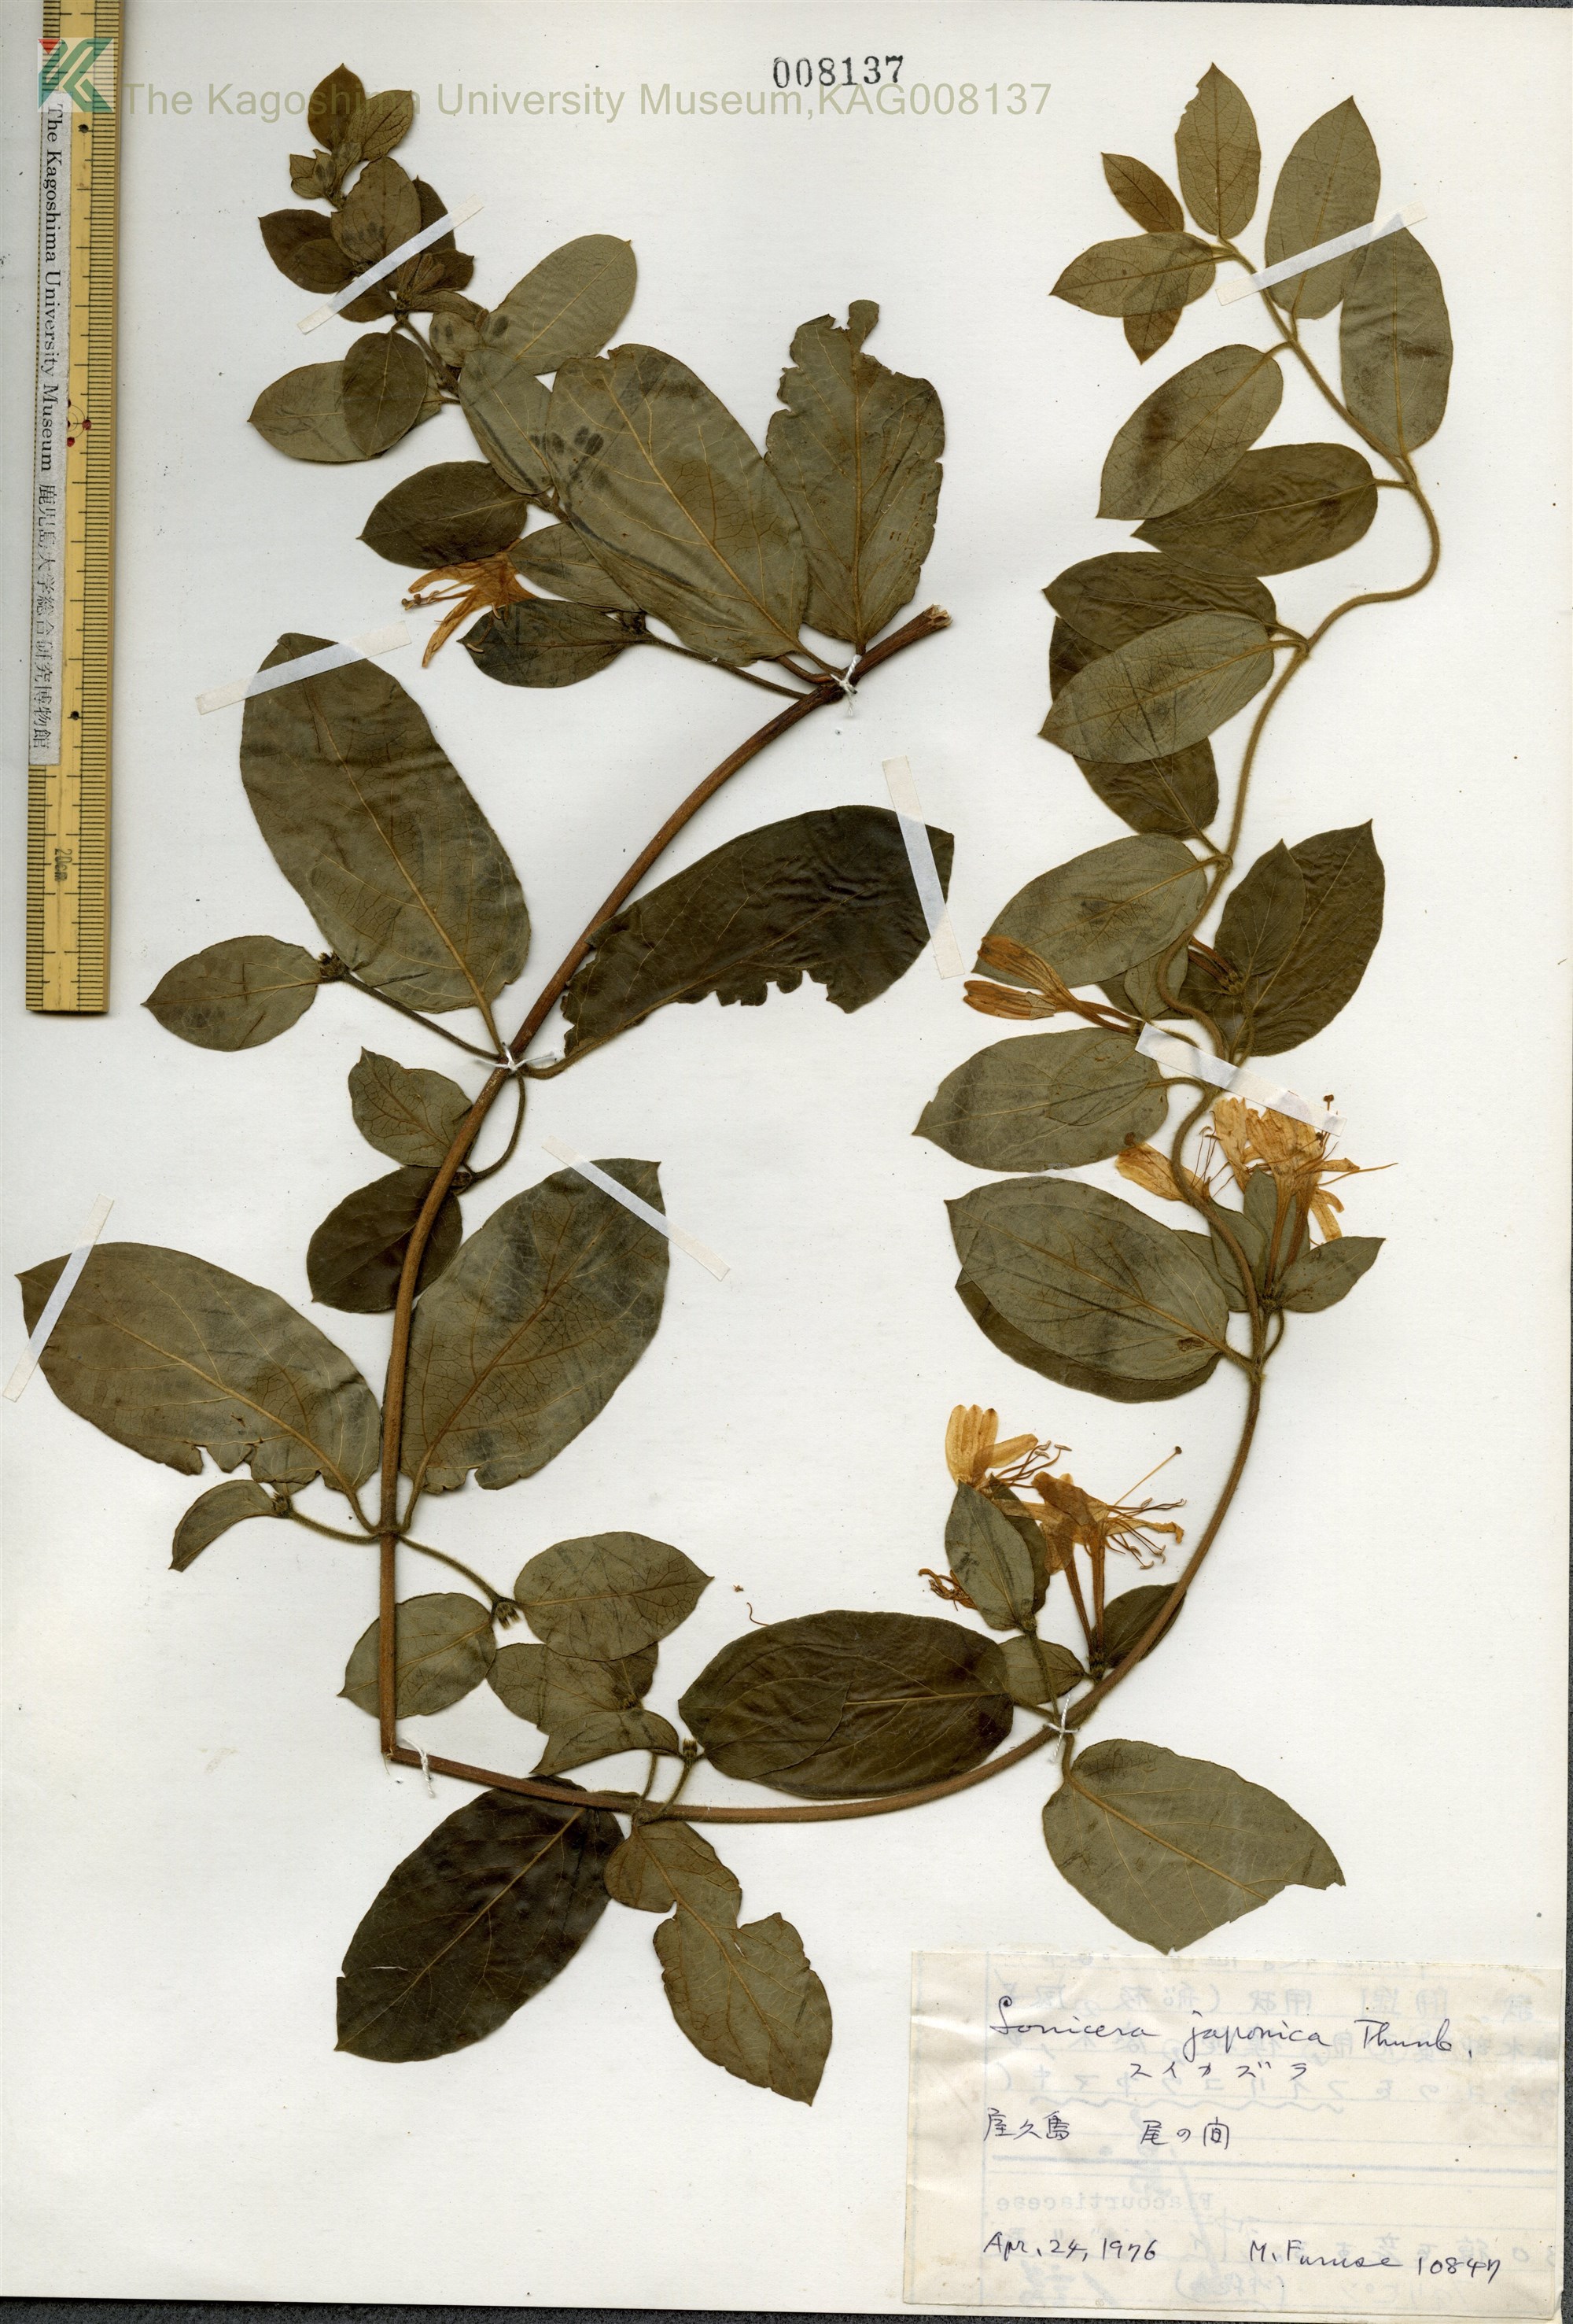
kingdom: Plantae
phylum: Tracheophyta
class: Magnoliopsida
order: Dipsacales
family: Caprifoliaceae
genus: Lonicera
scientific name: Lonicera japonica
